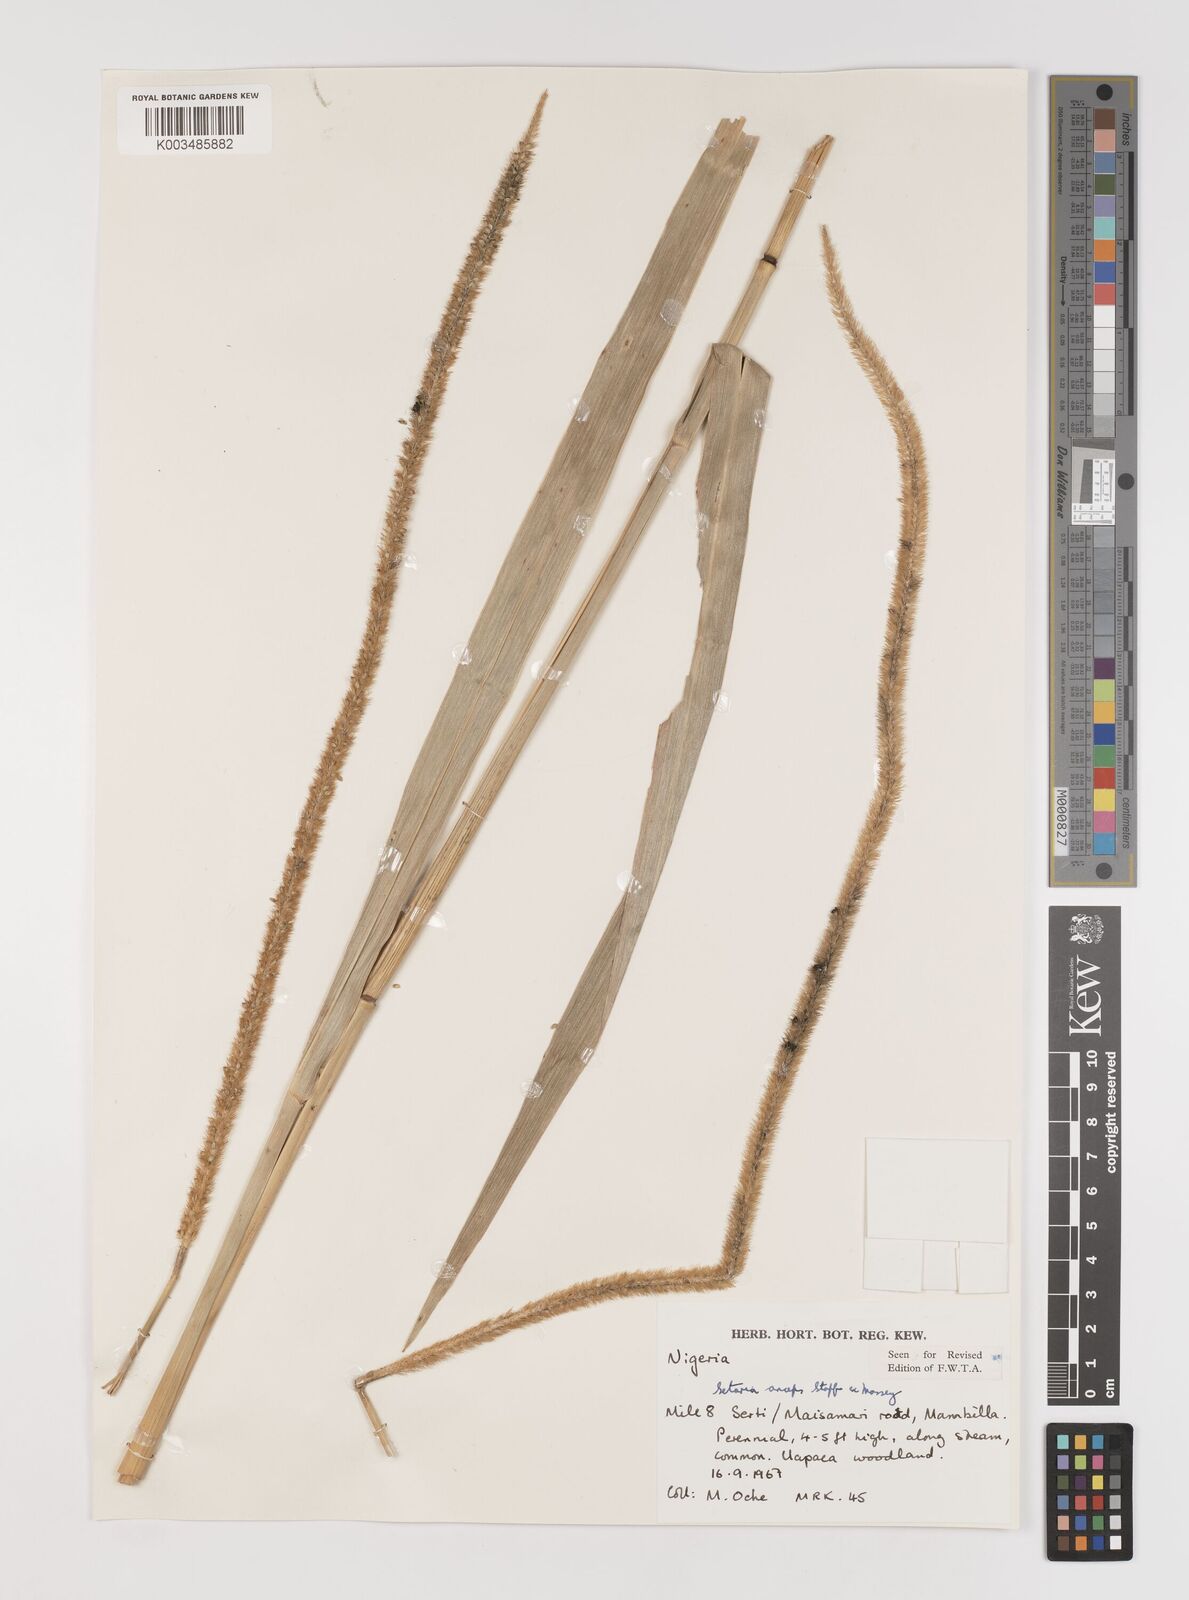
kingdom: Plantae
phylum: Tracheophyta
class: Liliopsida
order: Poales
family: Poaceae
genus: Setaria
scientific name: Setaria sphacelata
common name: African bristlegrass
